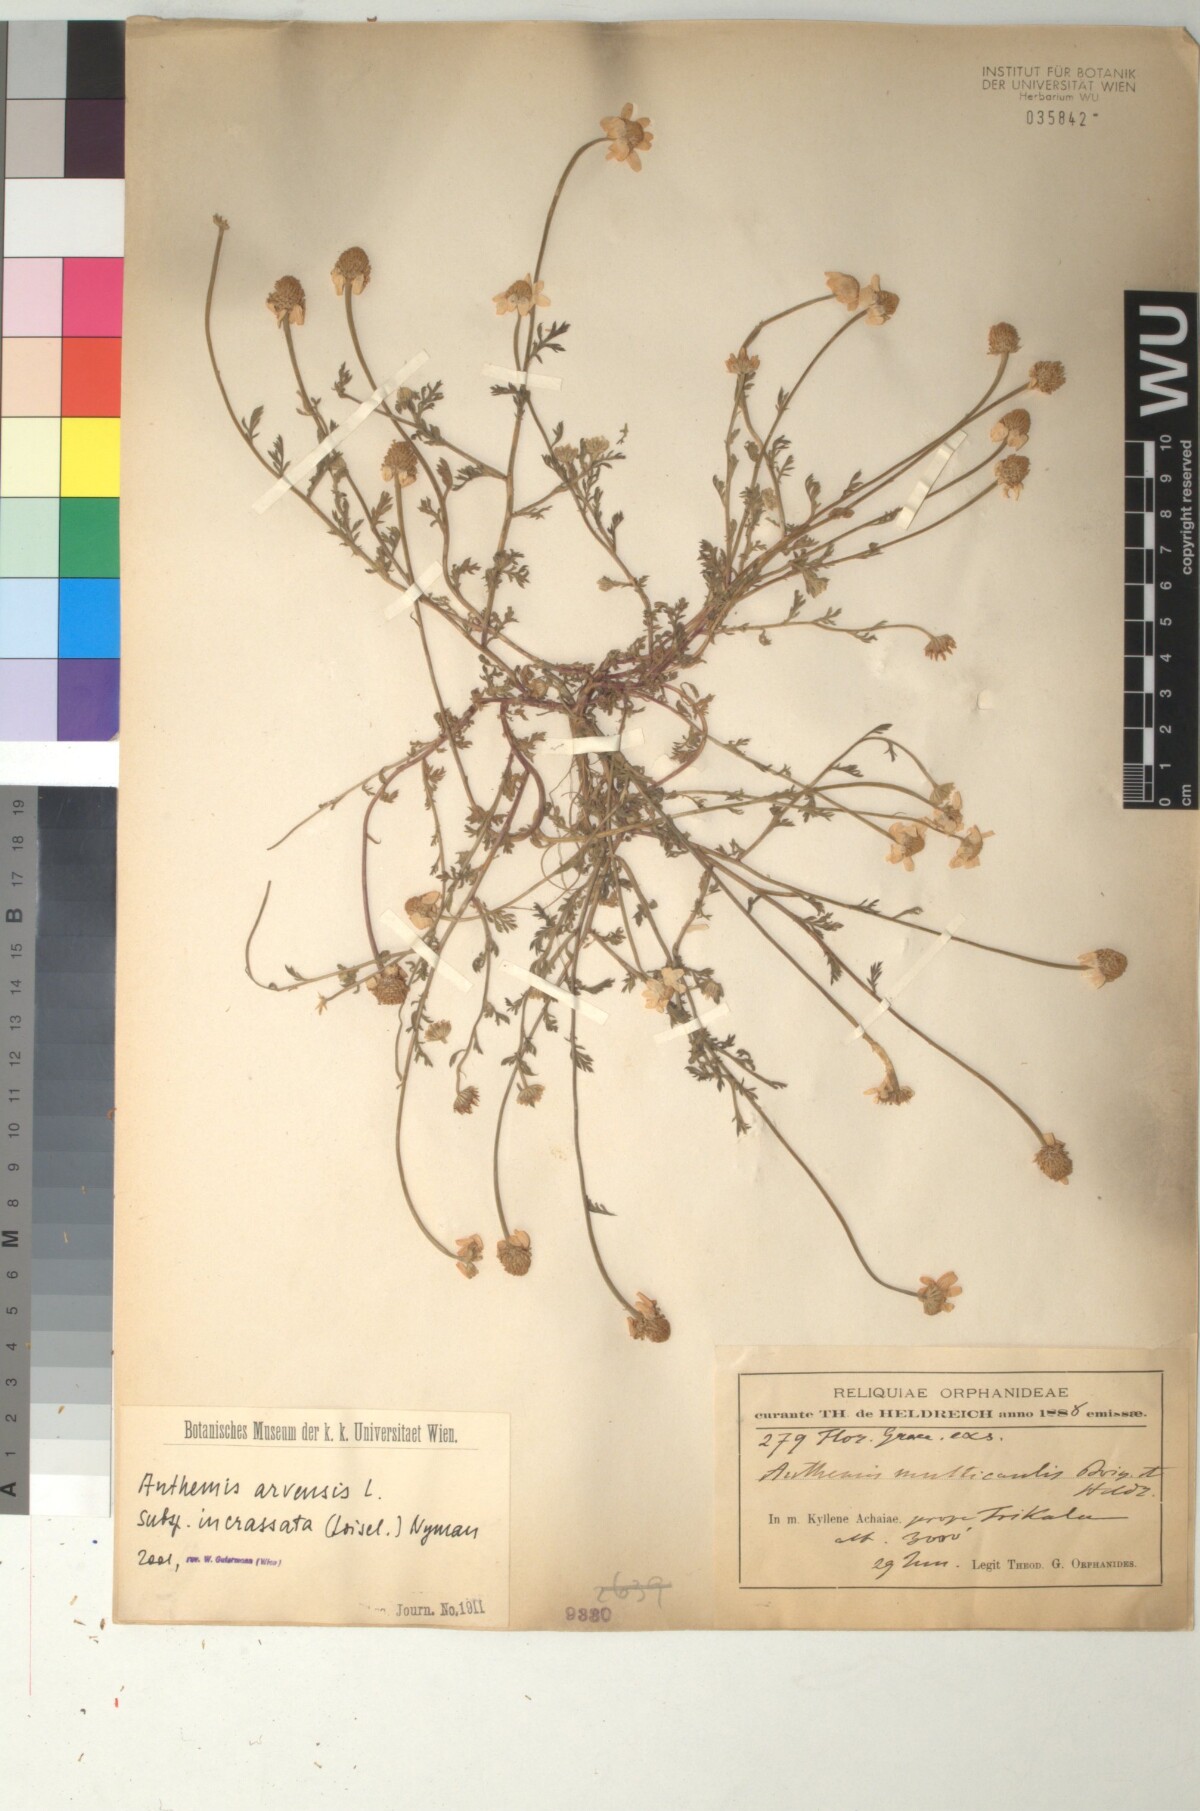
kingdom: Plantae
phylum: Tracheophyta
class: Magnoliopsida
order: Asterales
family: Asteraceae
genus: Anthemis
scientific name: Anthemis arvensis
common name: Corn chamomile
